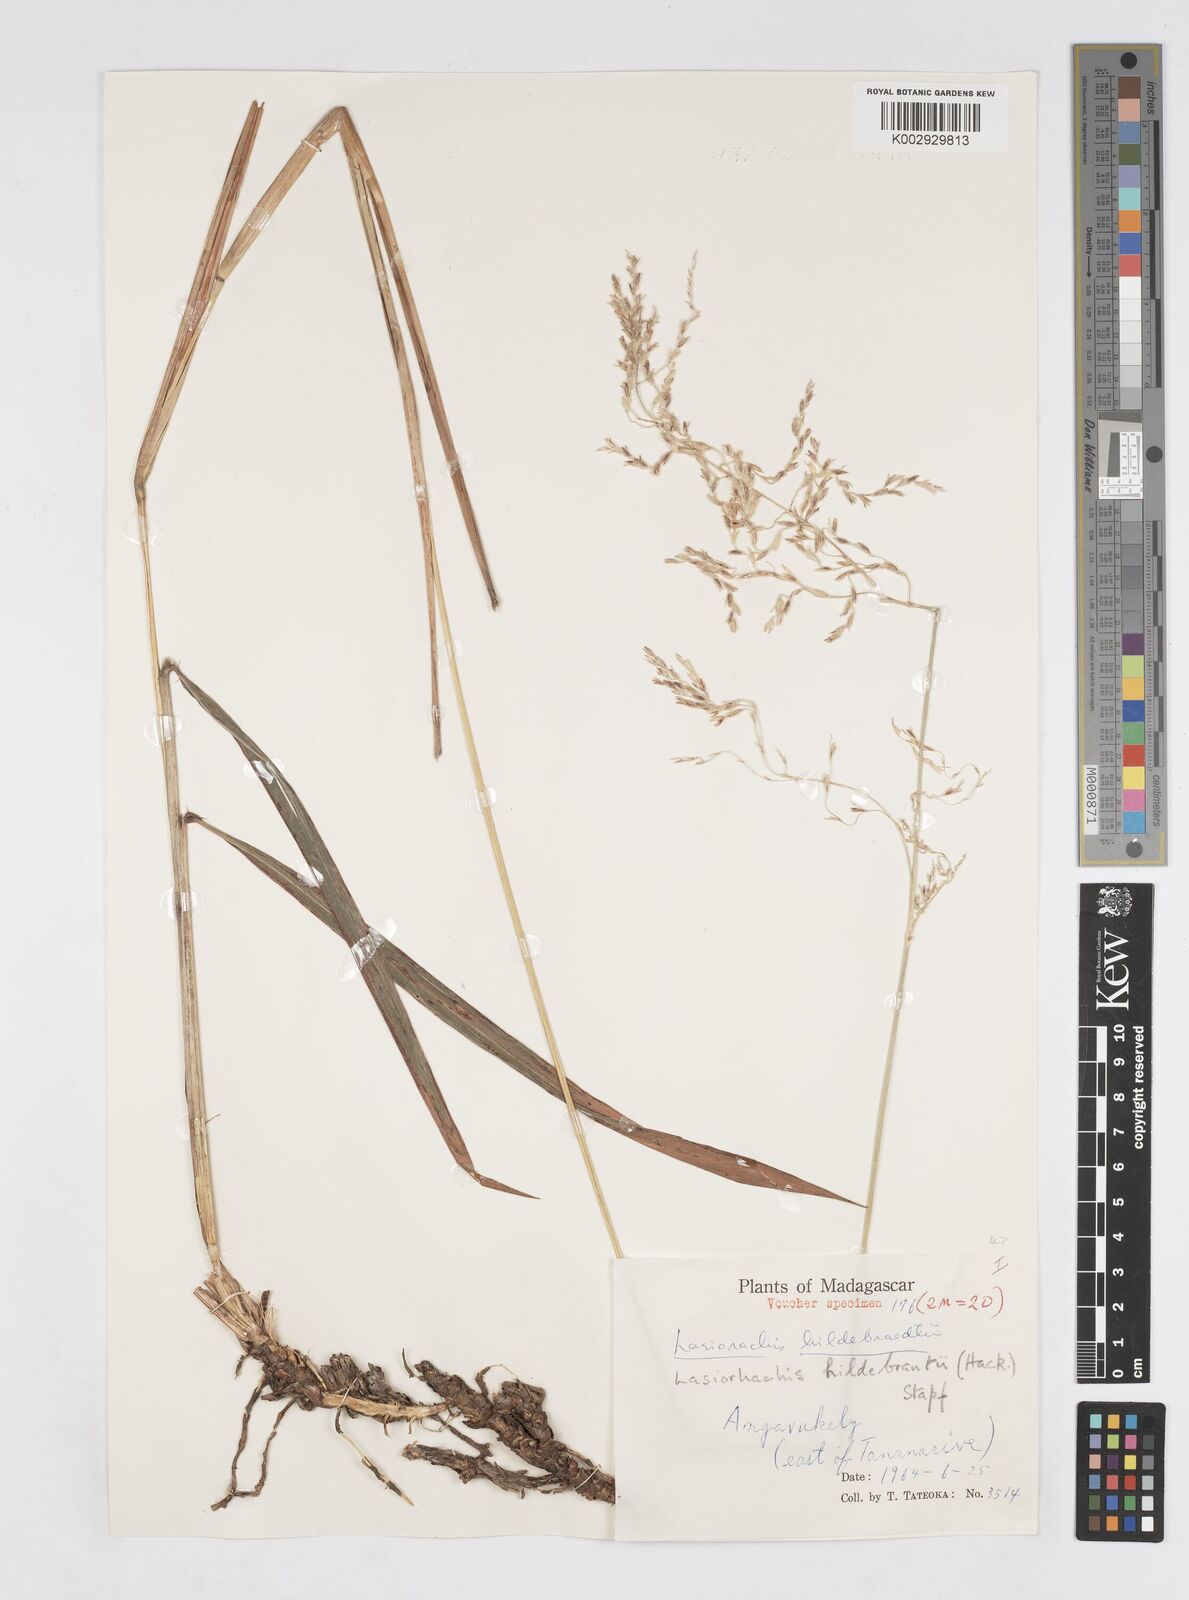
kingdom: Plantae
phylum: Tracheophyta
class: Liliopsida
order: Poales
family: Poaceae
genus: Lasiorhachis
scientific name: Lasiorhachis hildebrandtii
